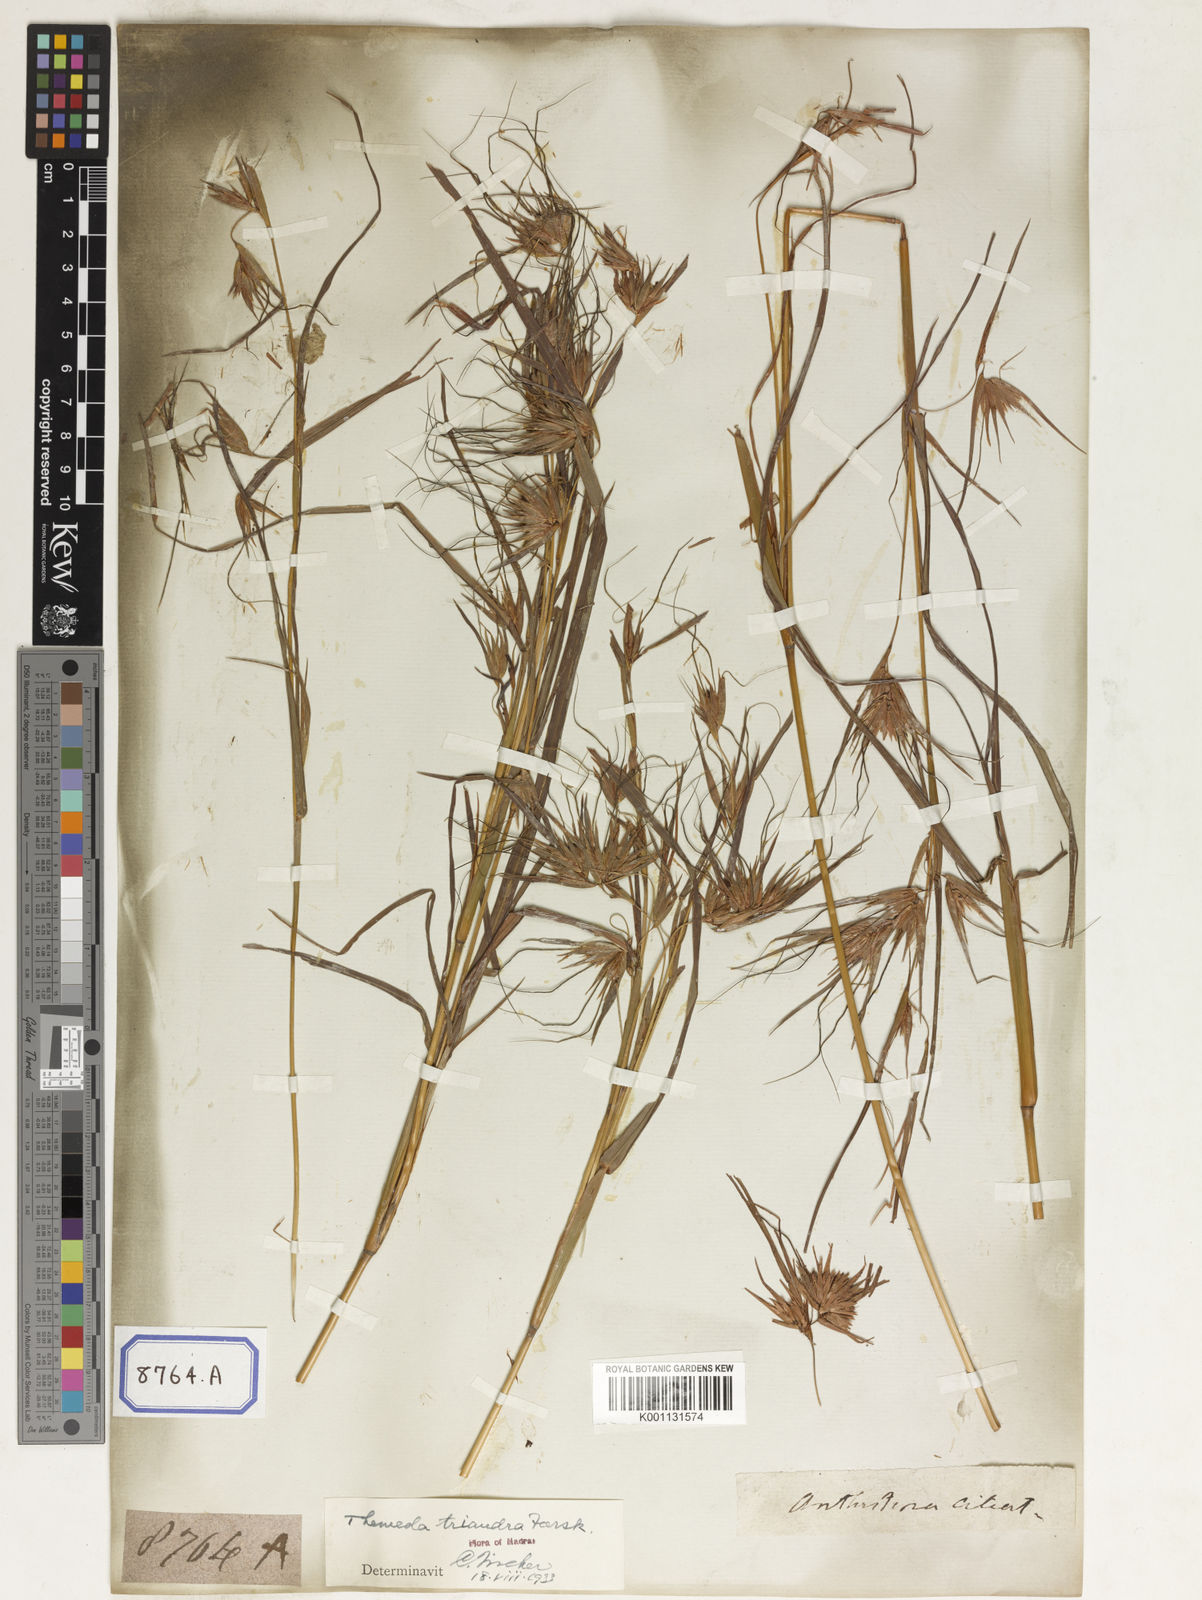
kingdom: Plantae
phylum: Tracheophyta
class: Liliopsida
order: Poales
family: Poaceae
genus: Themeda
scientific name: Themeda
